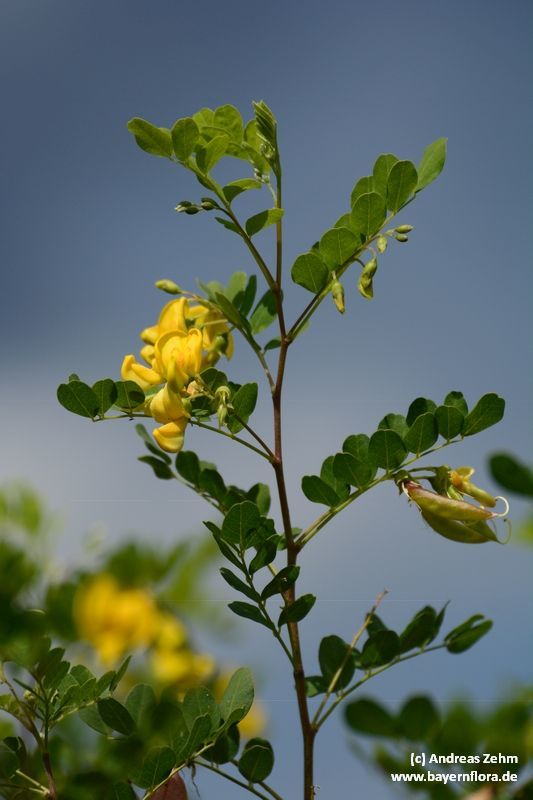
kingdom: Plantae
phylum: Tracheophyta
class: Magnoliopsida
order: Fabales
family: Fabaceae
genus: Colutea
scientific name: Colutea arborescens
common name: Bladder-senna
